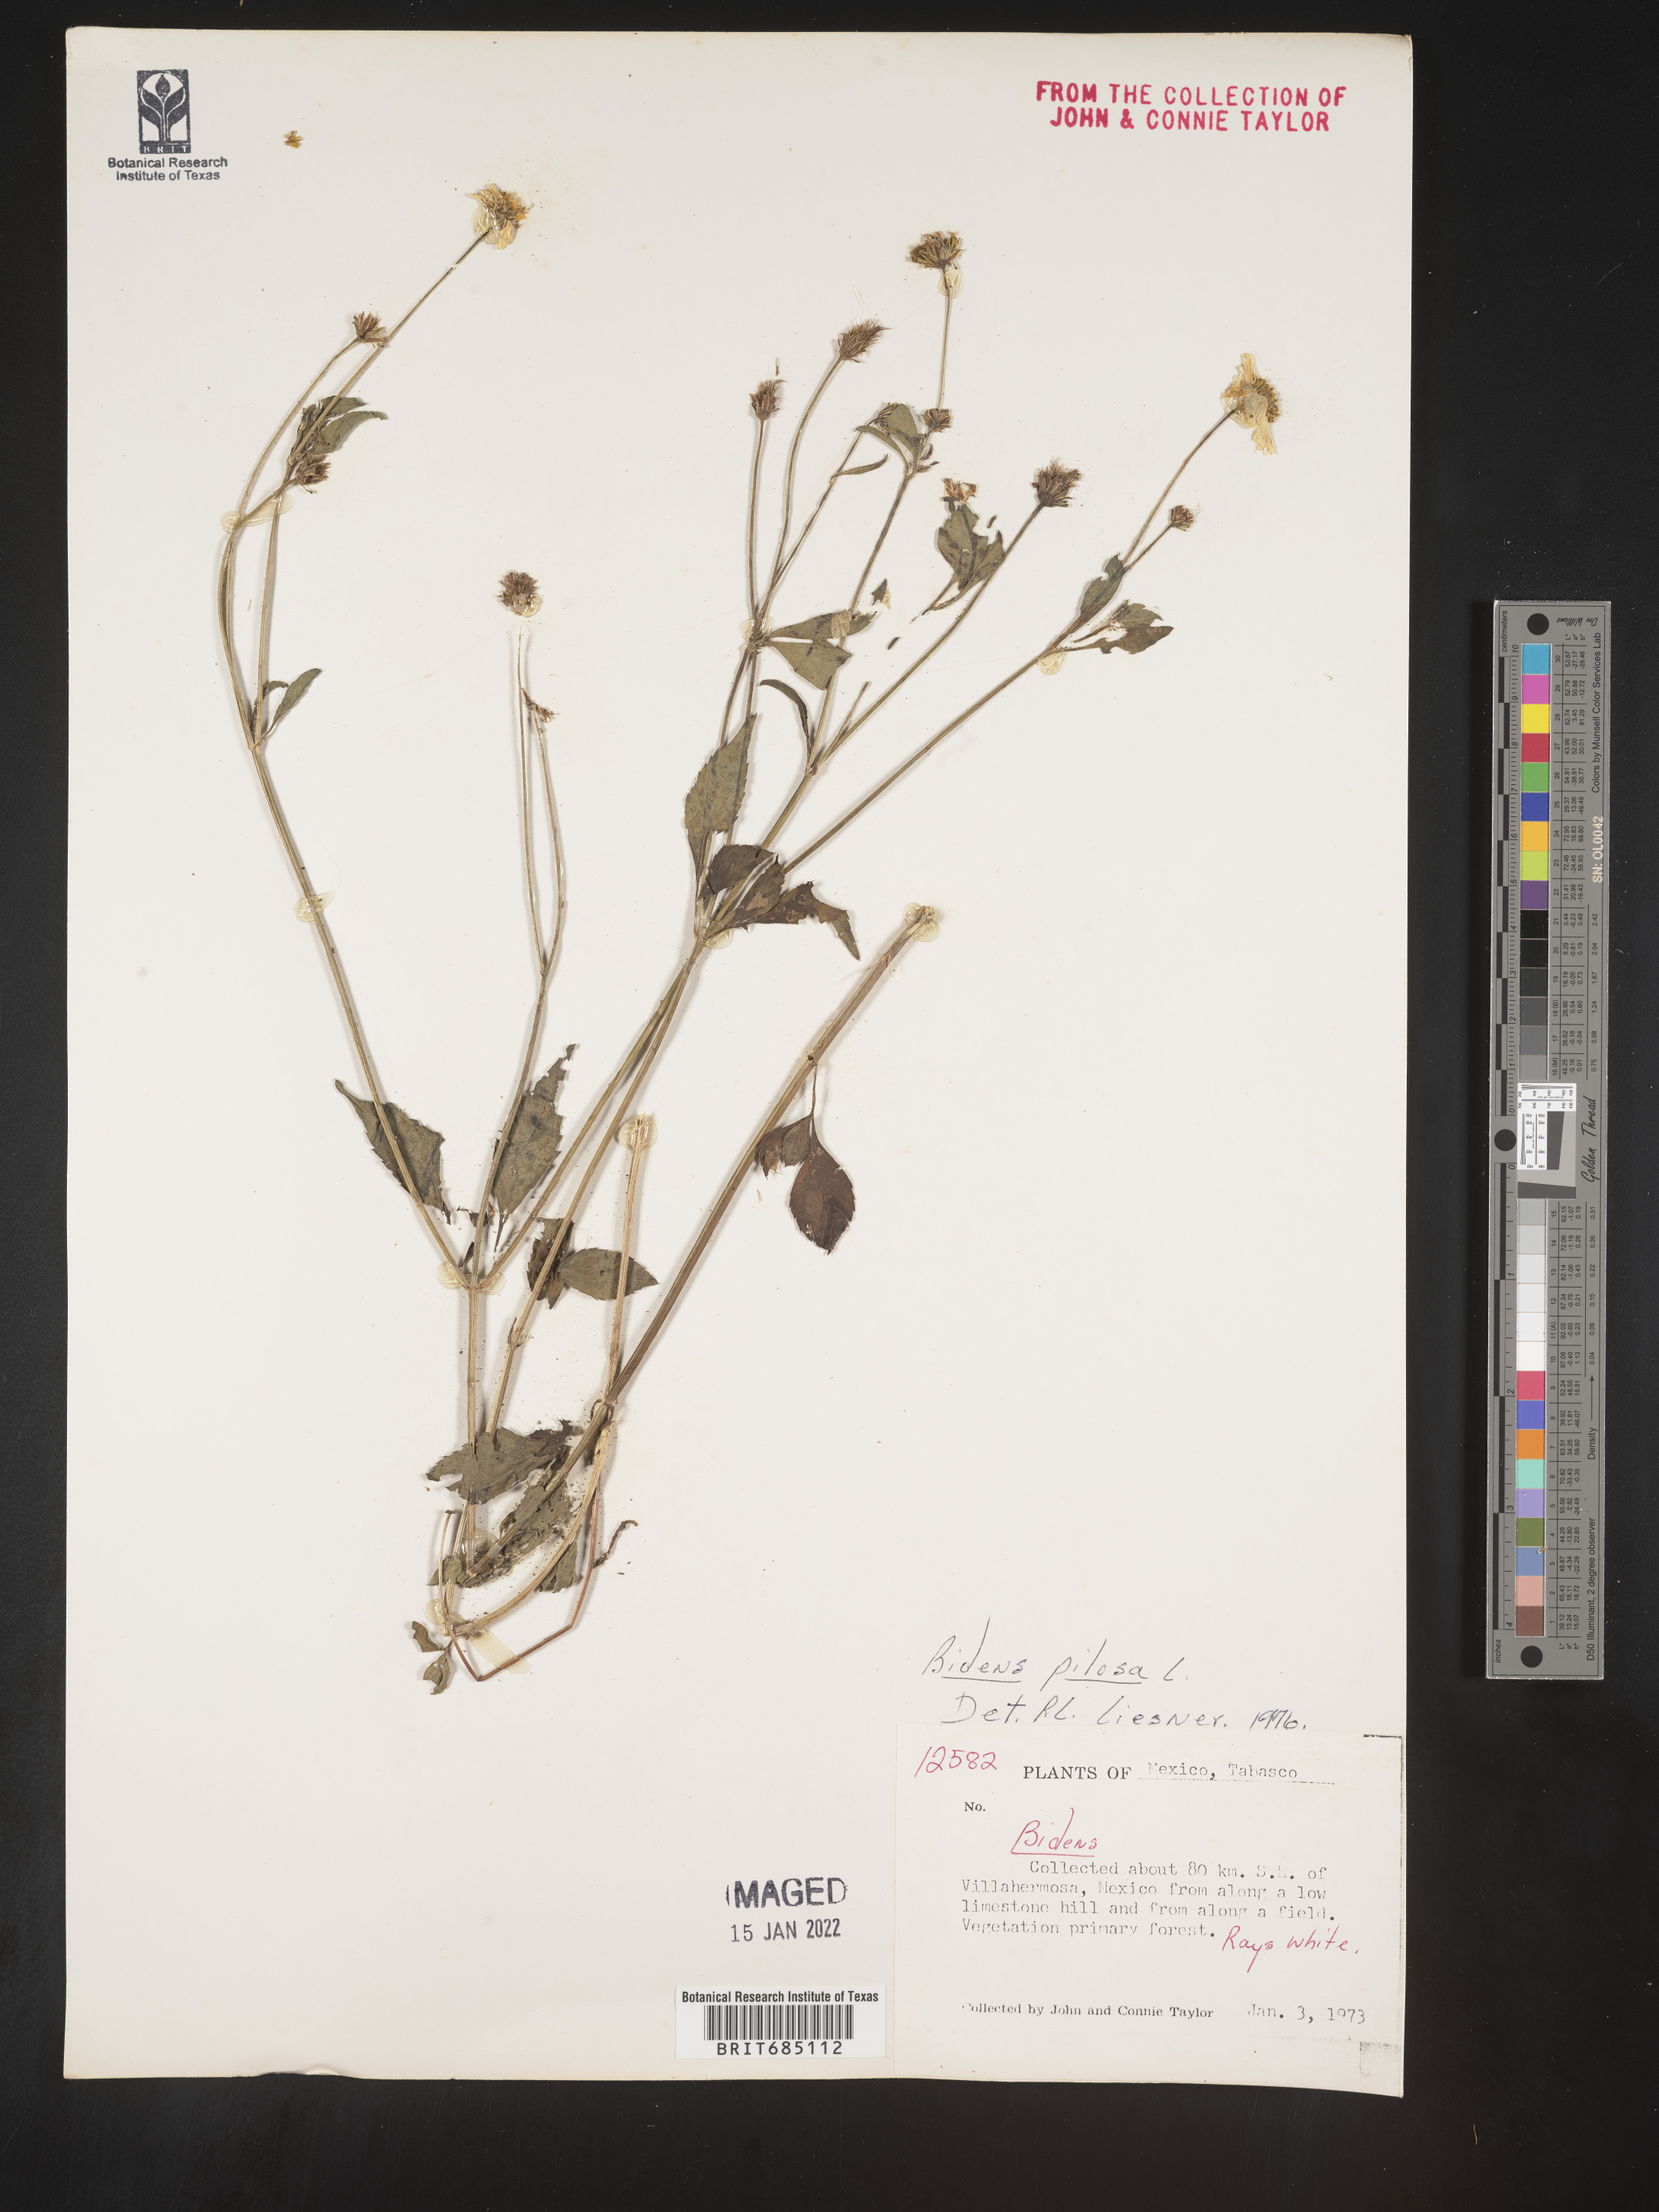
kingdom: Plantae
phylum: Tracheophyta
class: Magnoliopsida
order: Asterales
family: Asteraceae
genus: Bidens
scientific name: Bidens
